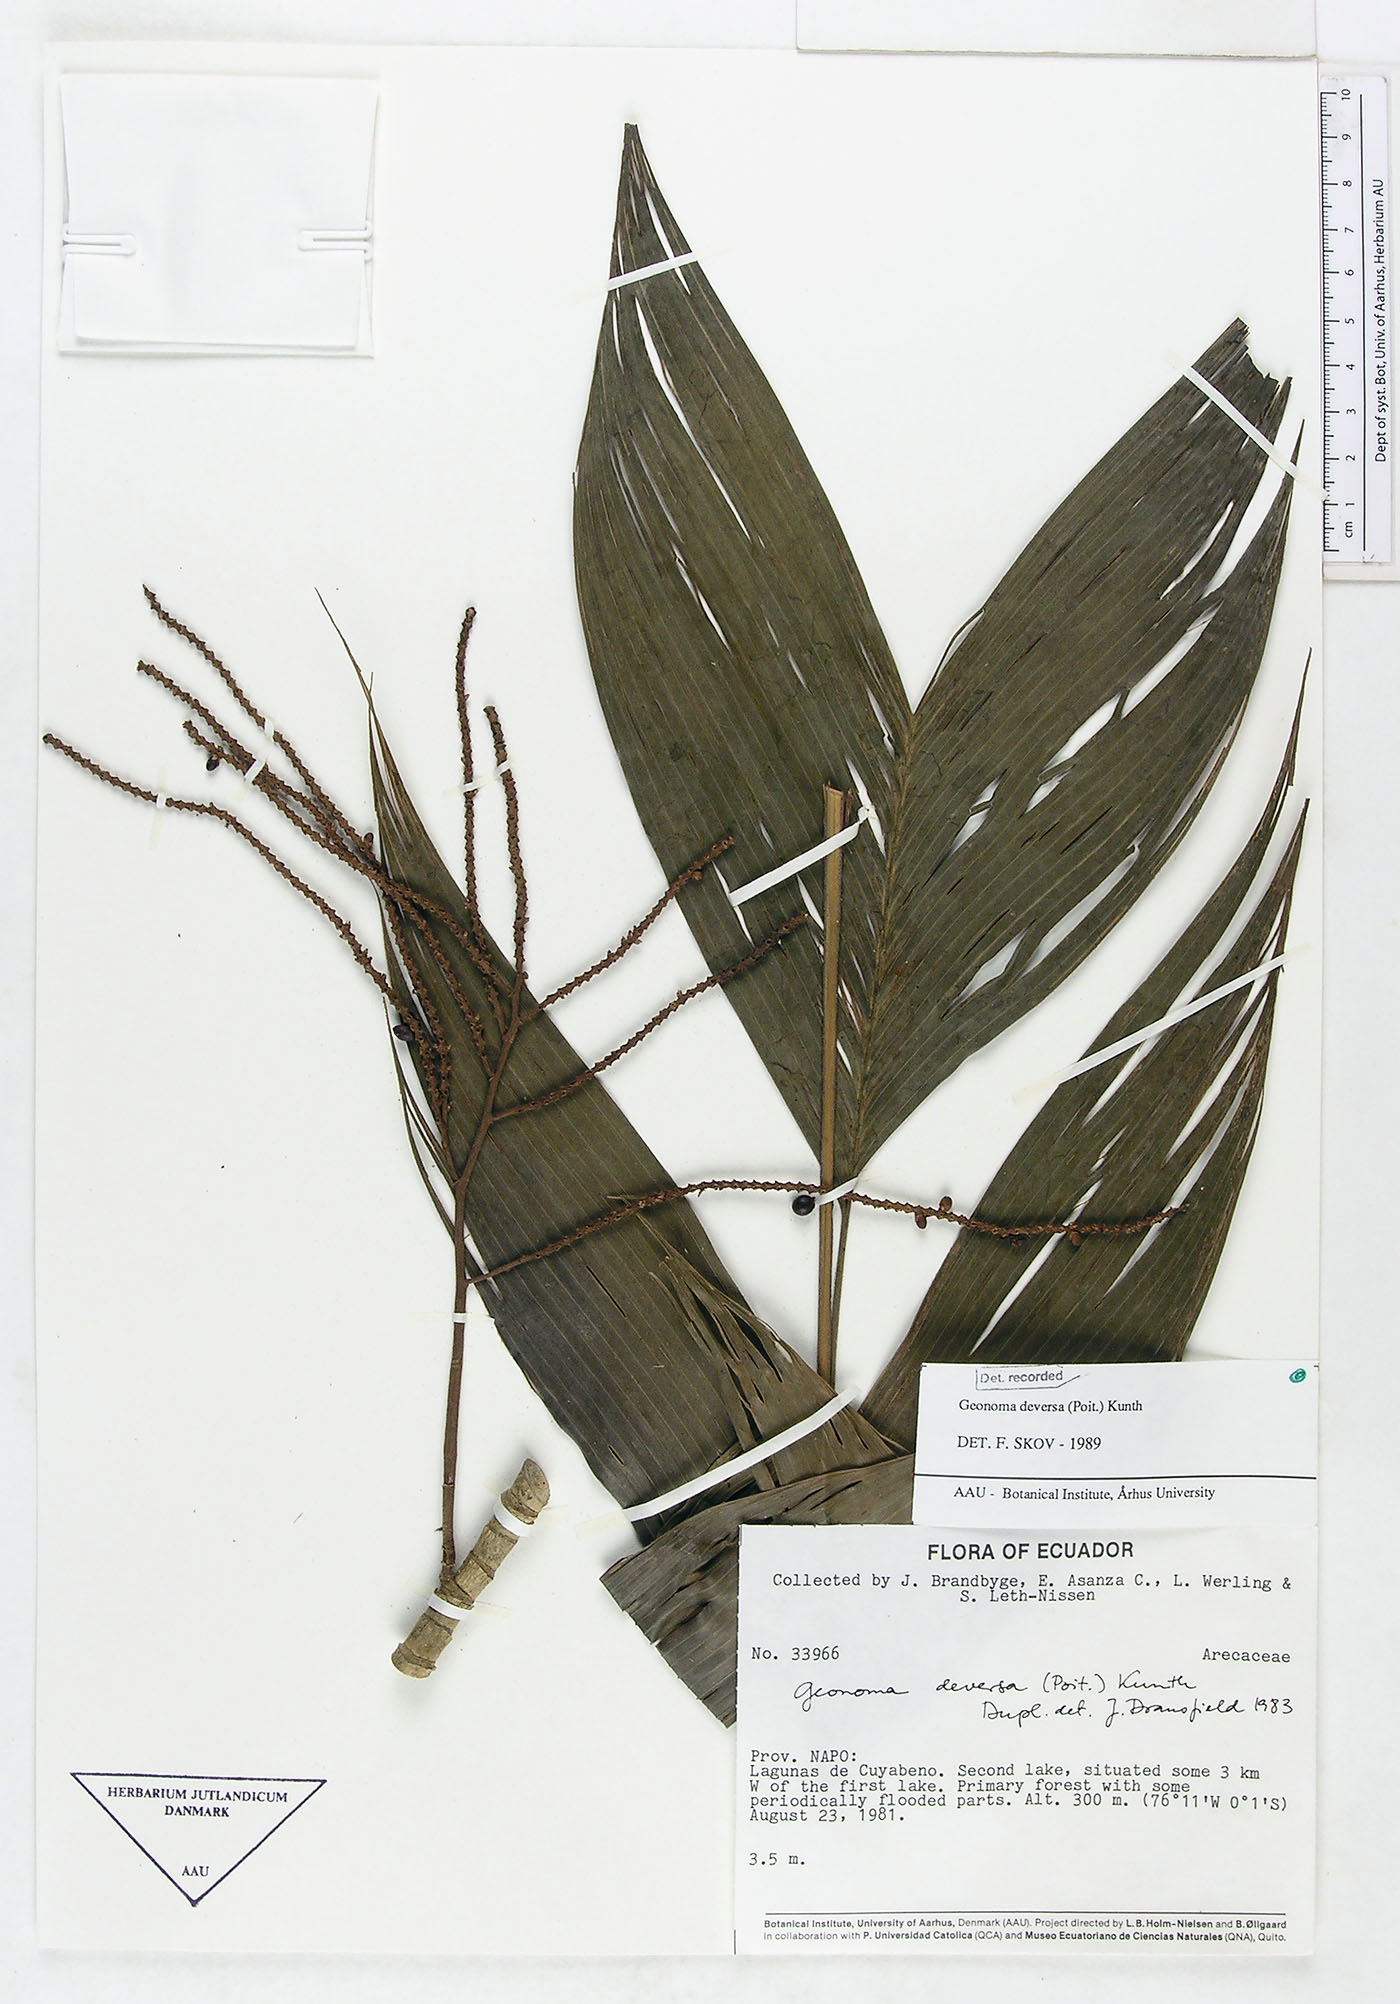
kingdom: Plantae
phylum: Tracheophyta
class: Liliopsida
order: Arecales
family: Arecaceae
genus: Geonoma
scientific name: Geonoma deversa
